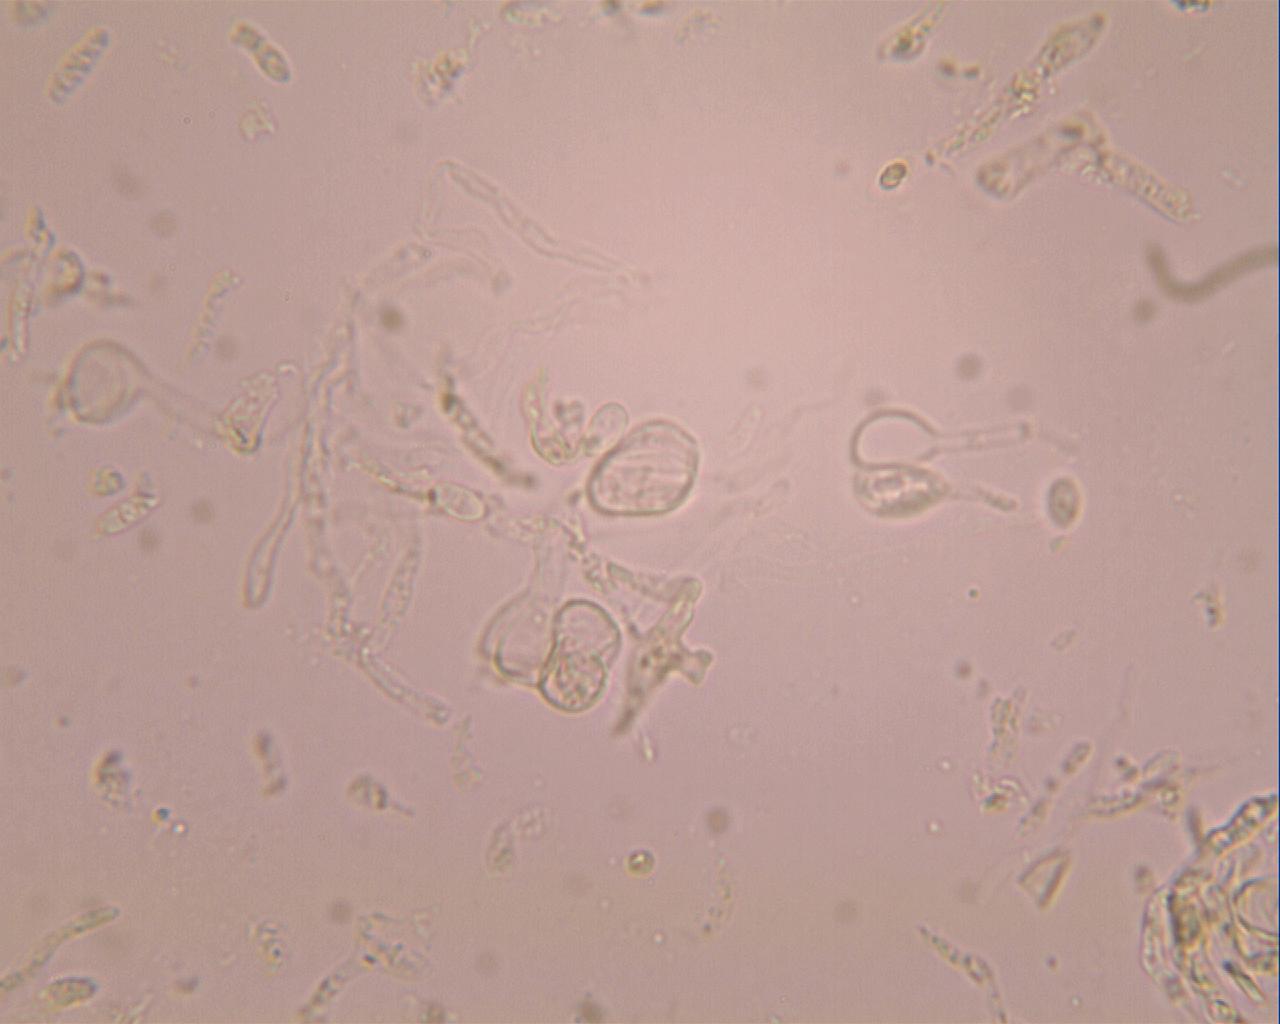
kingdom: Fungi
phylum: Basidiomycota
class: Tremellomycetes
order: Tremellales
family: Tremellaceae
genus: Phaeotremella
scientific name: Phaeotremella frondosa
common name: kæmpe-bævresvamp
